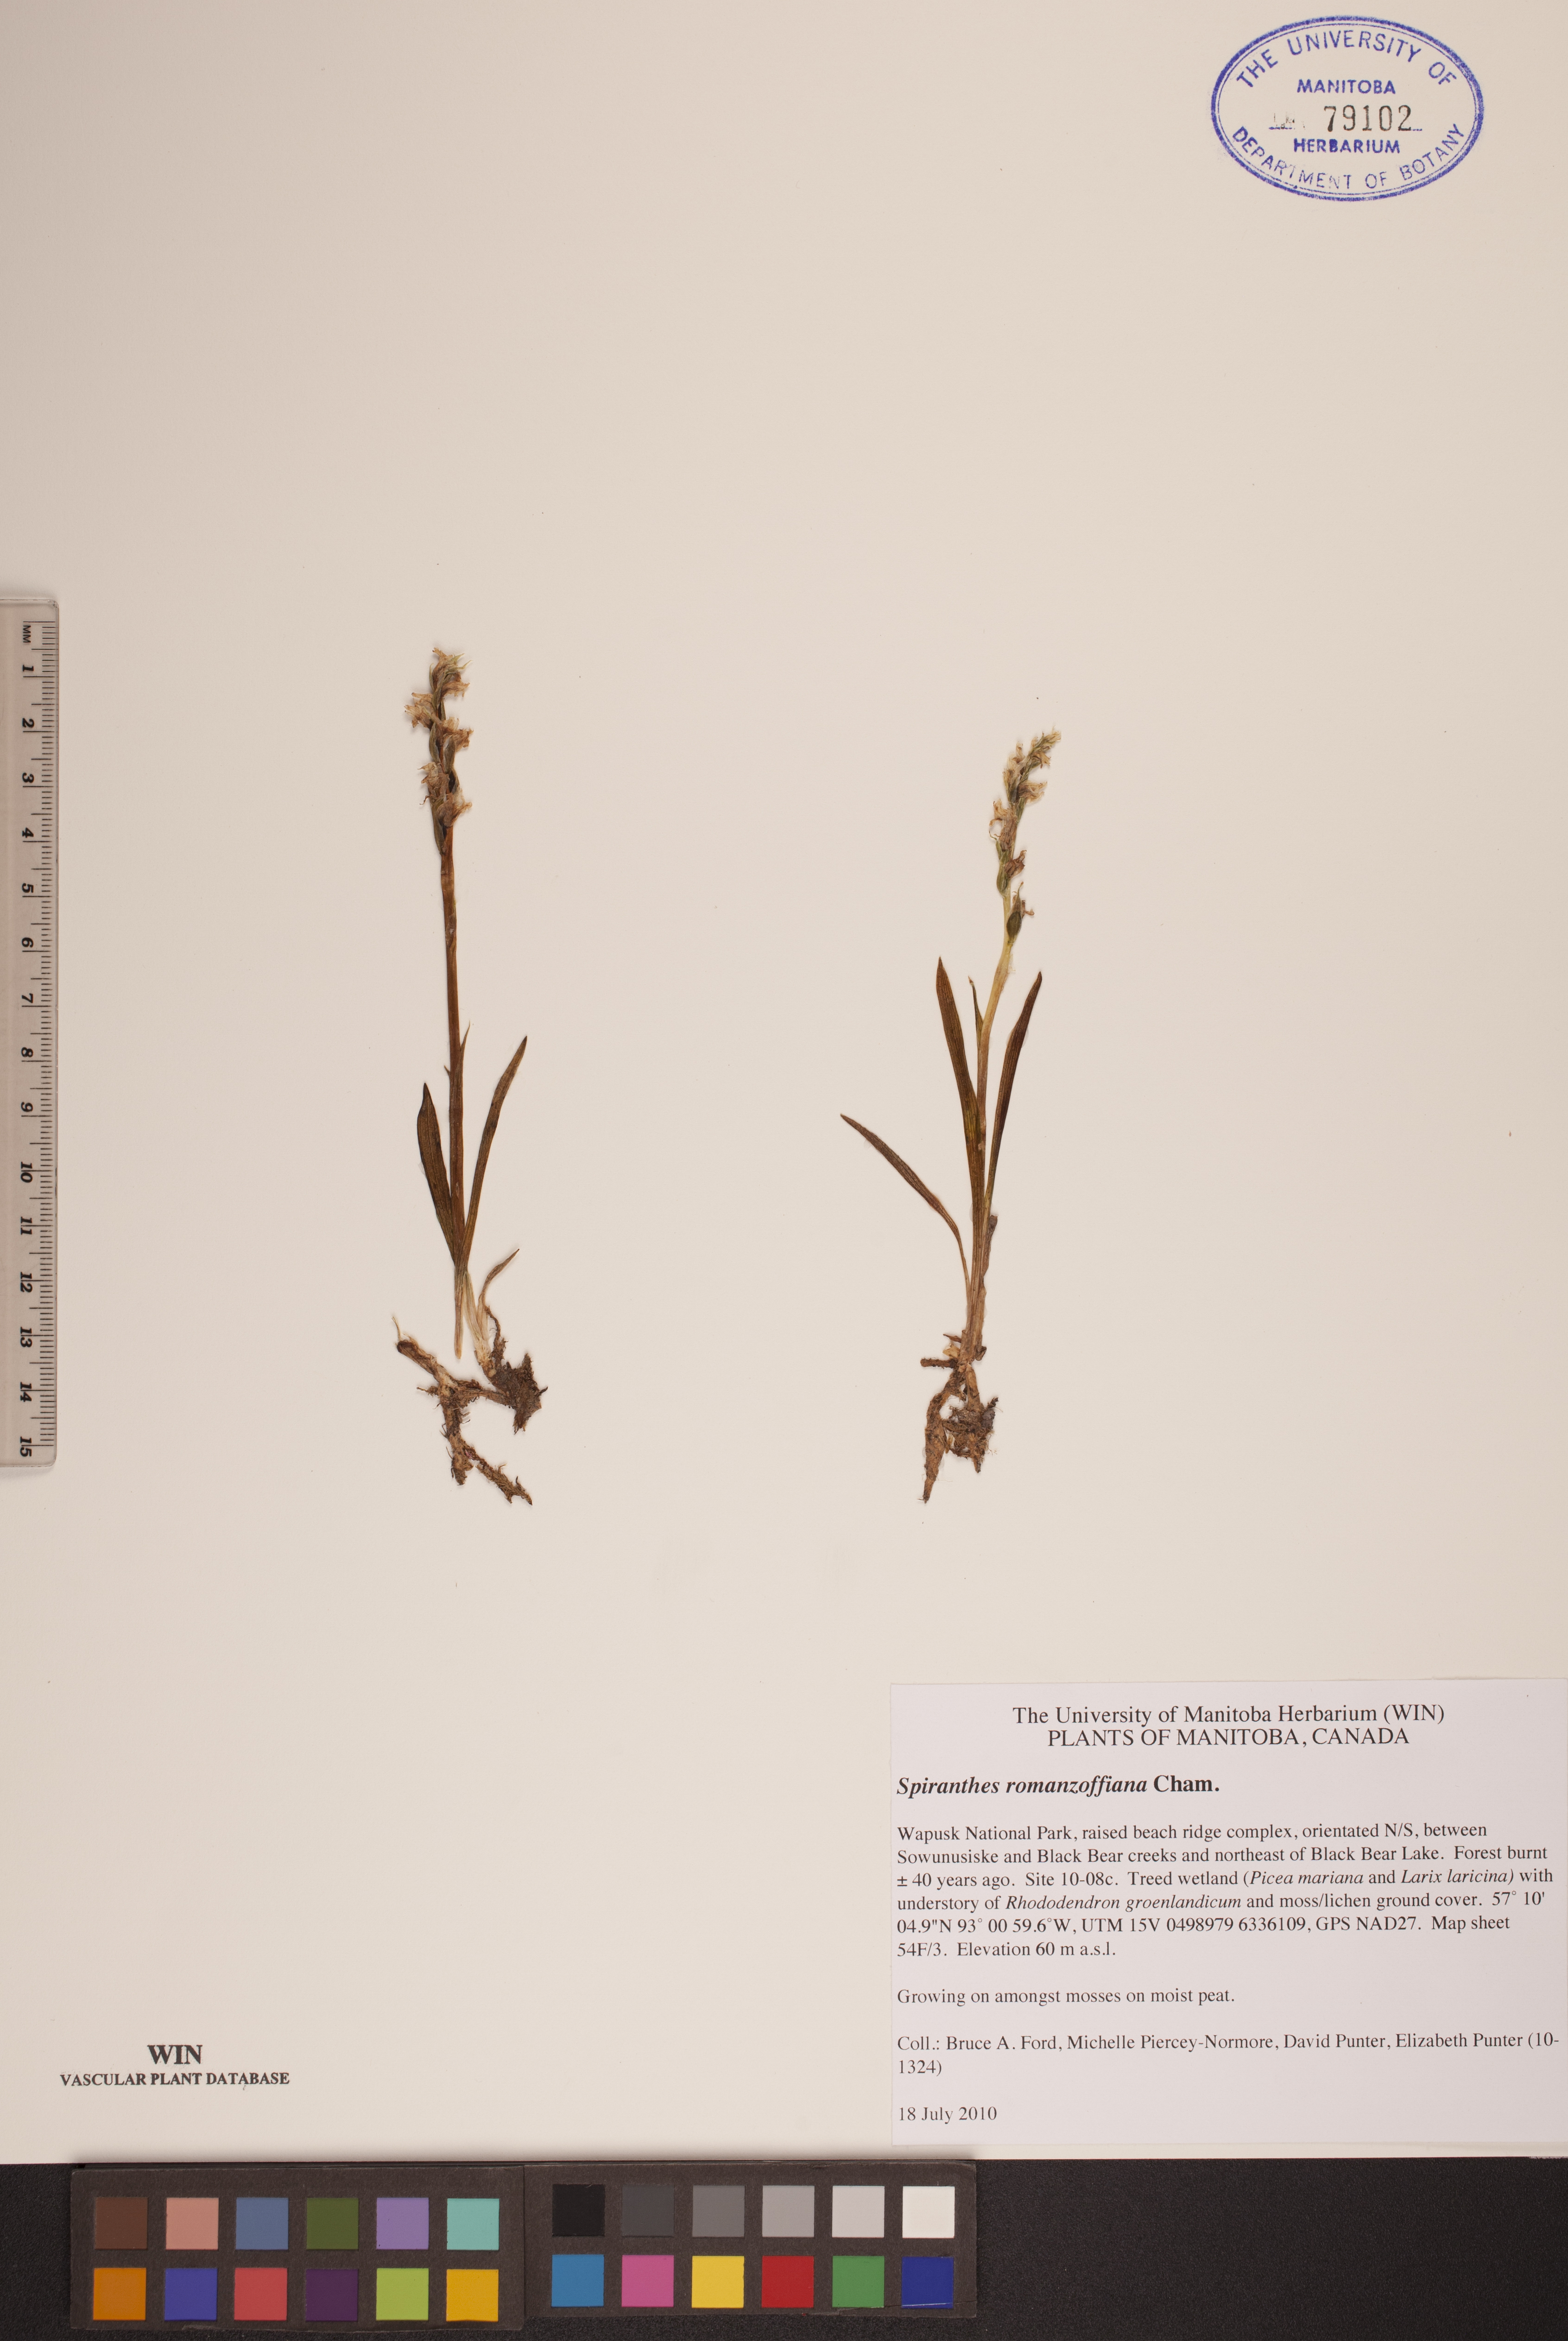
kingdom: Plantae
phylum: Tracheophyta
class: Liliopsida
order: Asparagales
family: Orchidaceae
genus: Spiranthes
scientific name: Spiranthes romanzoffiana
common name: Irish lady's-tresses
